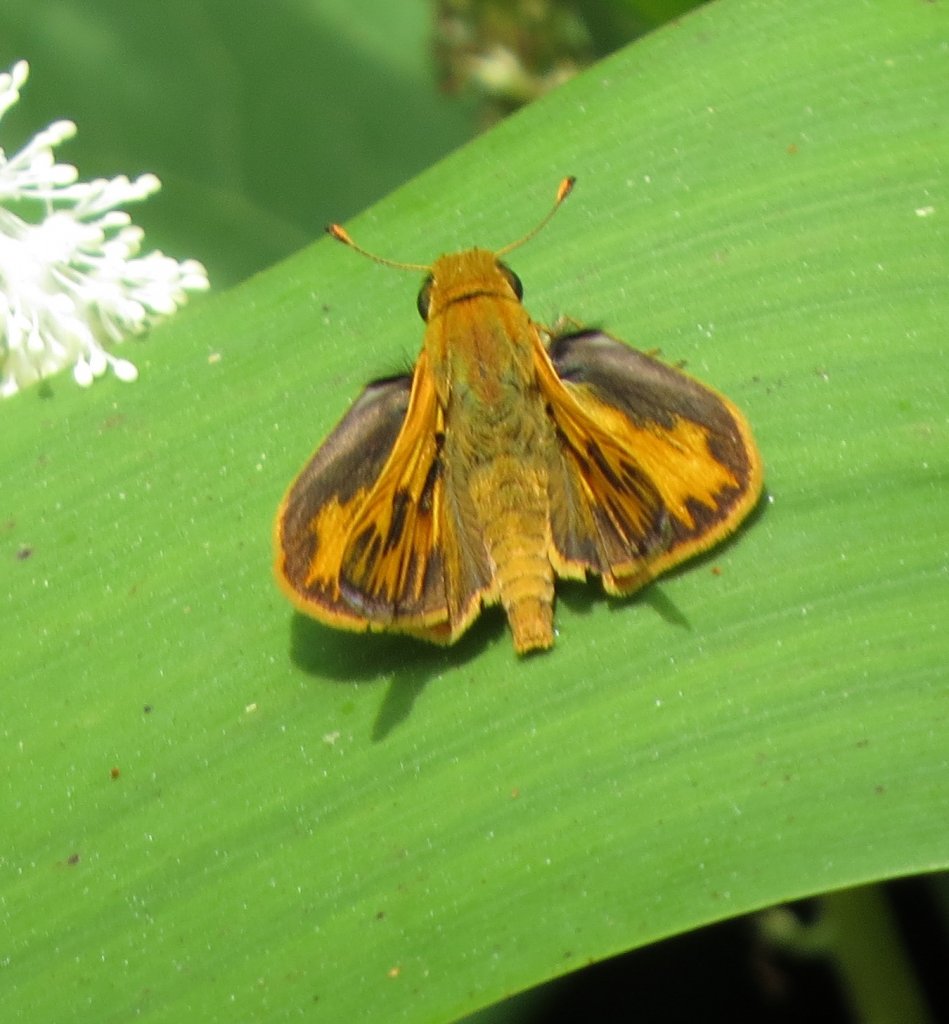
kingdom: Animalia
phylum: Arthropoda
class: Insecta
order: Lepidoptera
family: Hesperiidae
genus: Hylephila
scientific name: Hylephila phyleus
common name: Fiery Skipper
